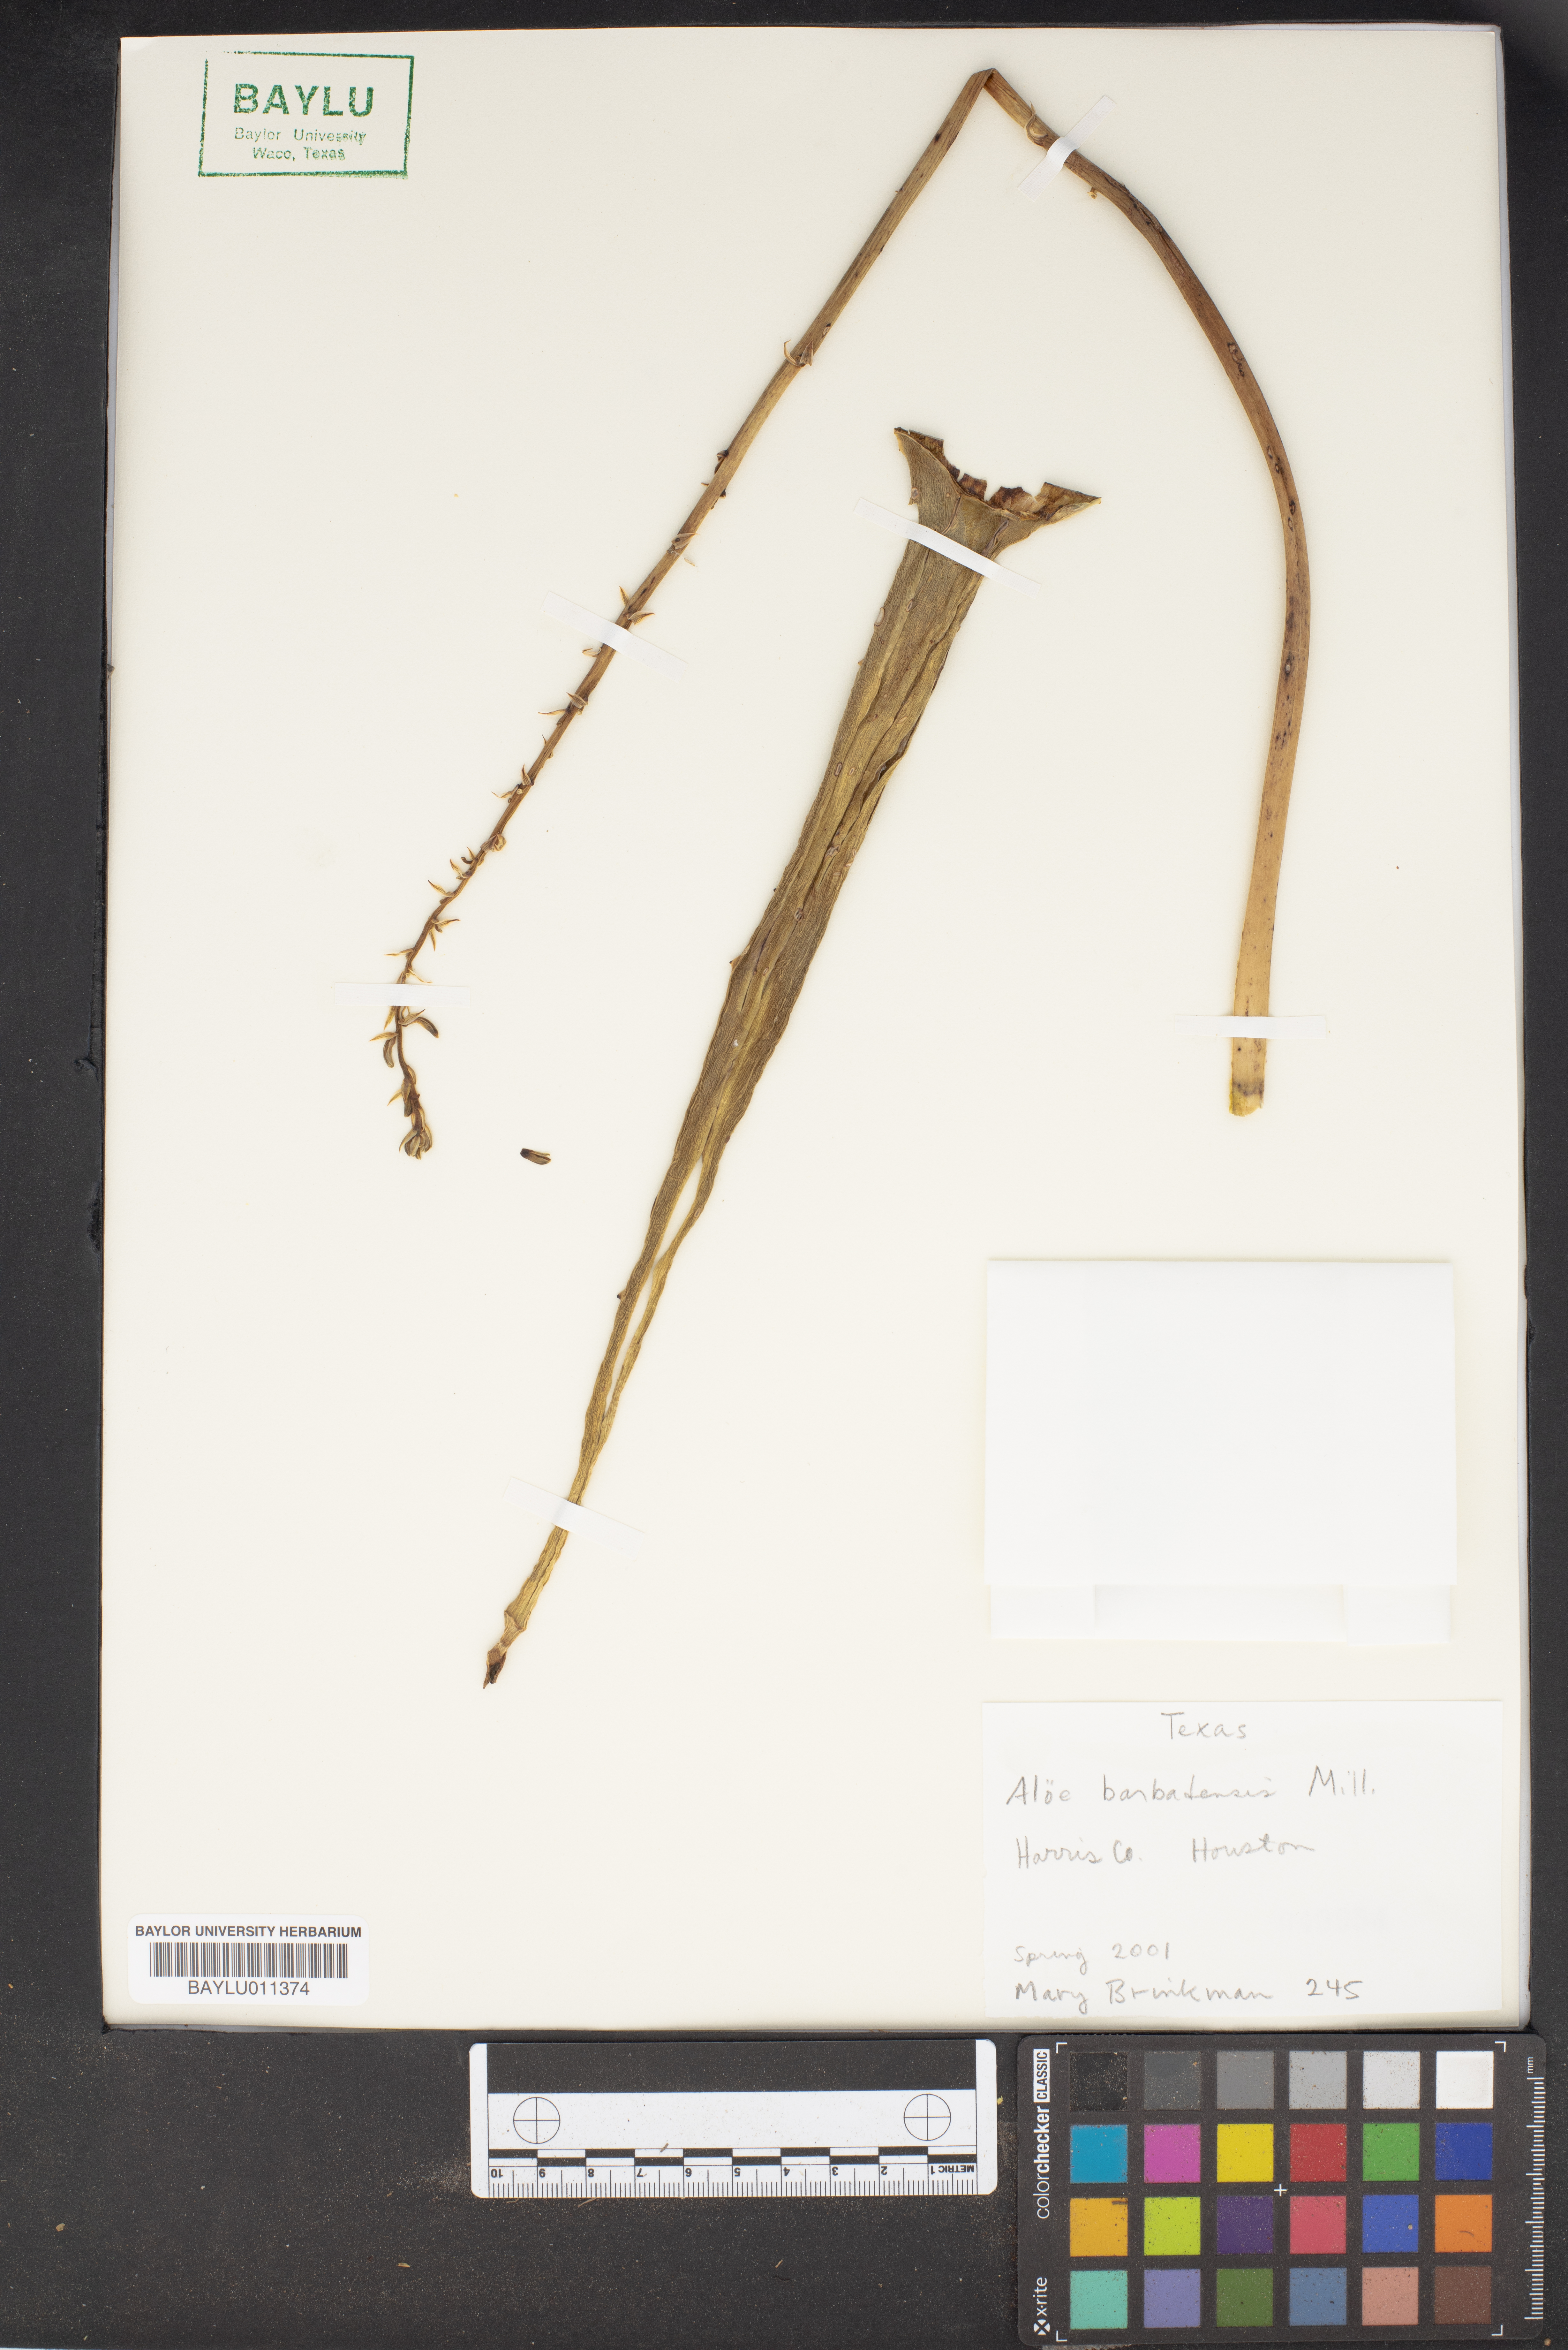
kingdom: Plantae
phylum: Tracheophyta
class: Liliopsida
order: Asparagales
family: Asphodelaceae
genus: Aloe
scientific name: Aloe vera
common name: Barbados aloe
